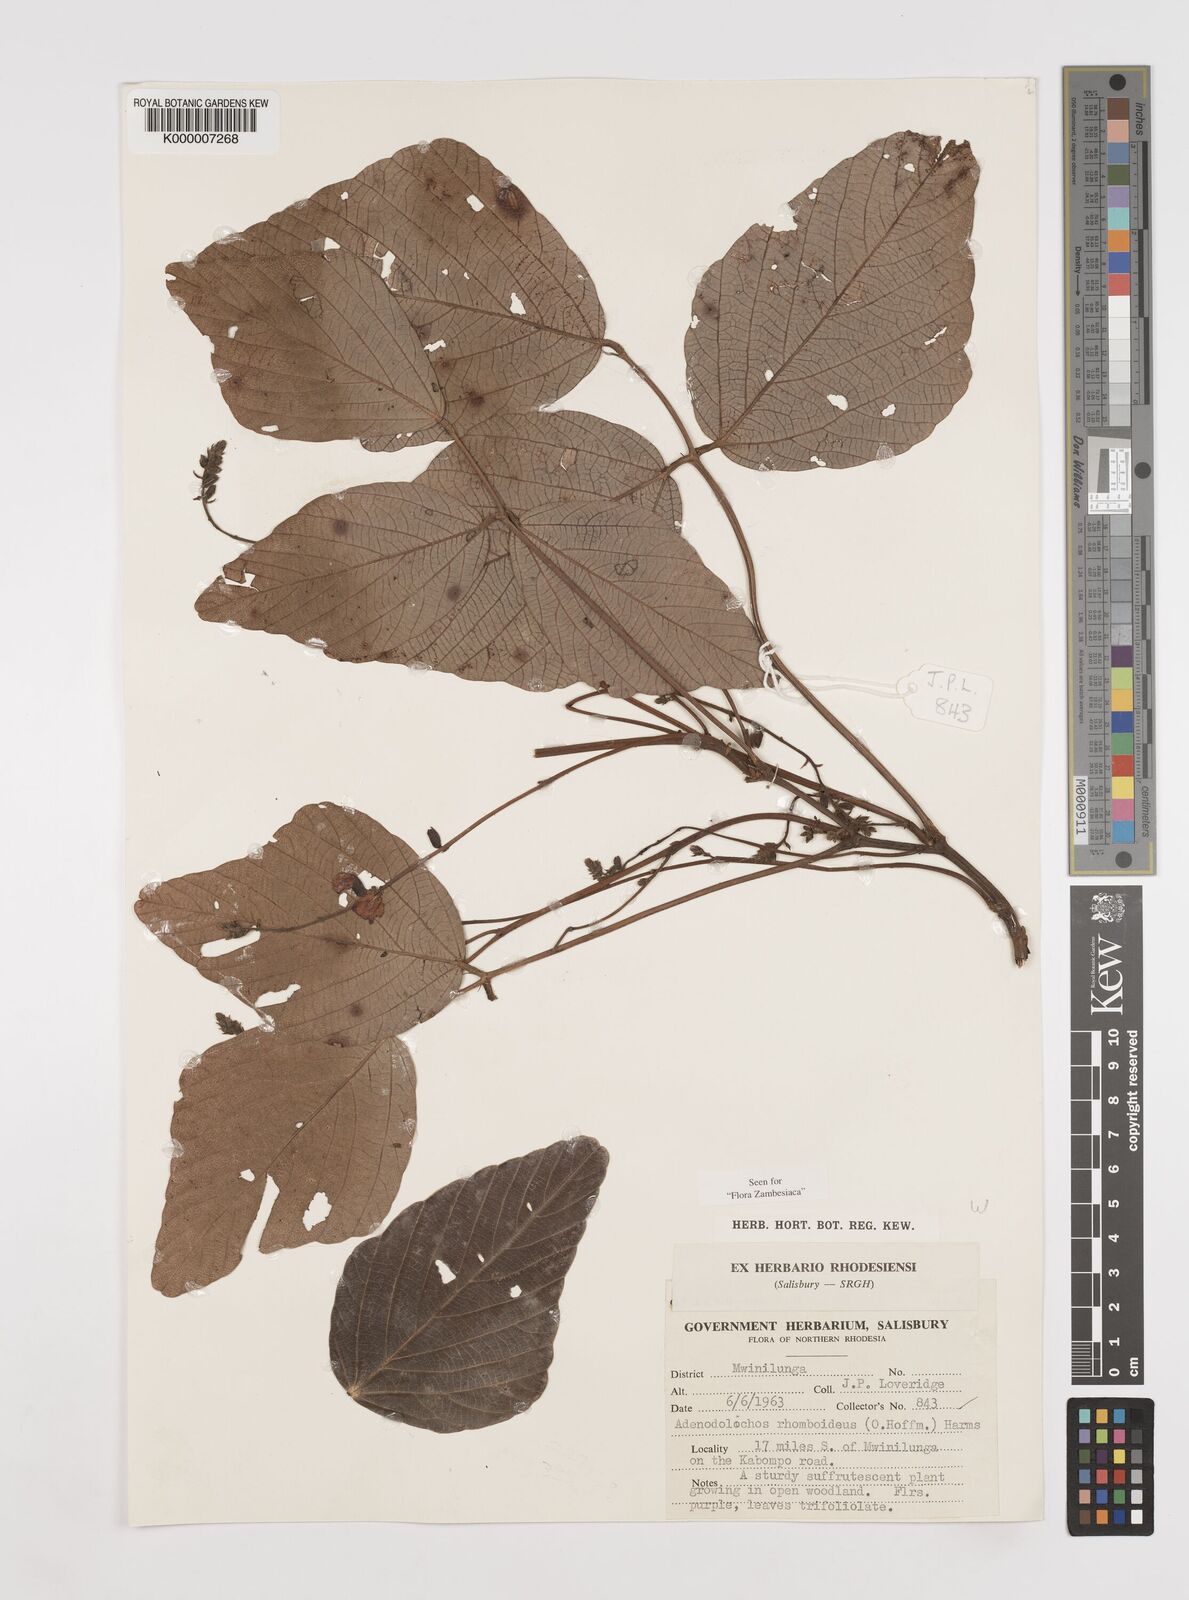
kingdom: Plantae
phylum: Tracheophyta
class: Magnoliopsida
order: Fabales
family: Fabaceae
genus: Adenodolichos
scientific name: Adenodolichos rhomboideus
